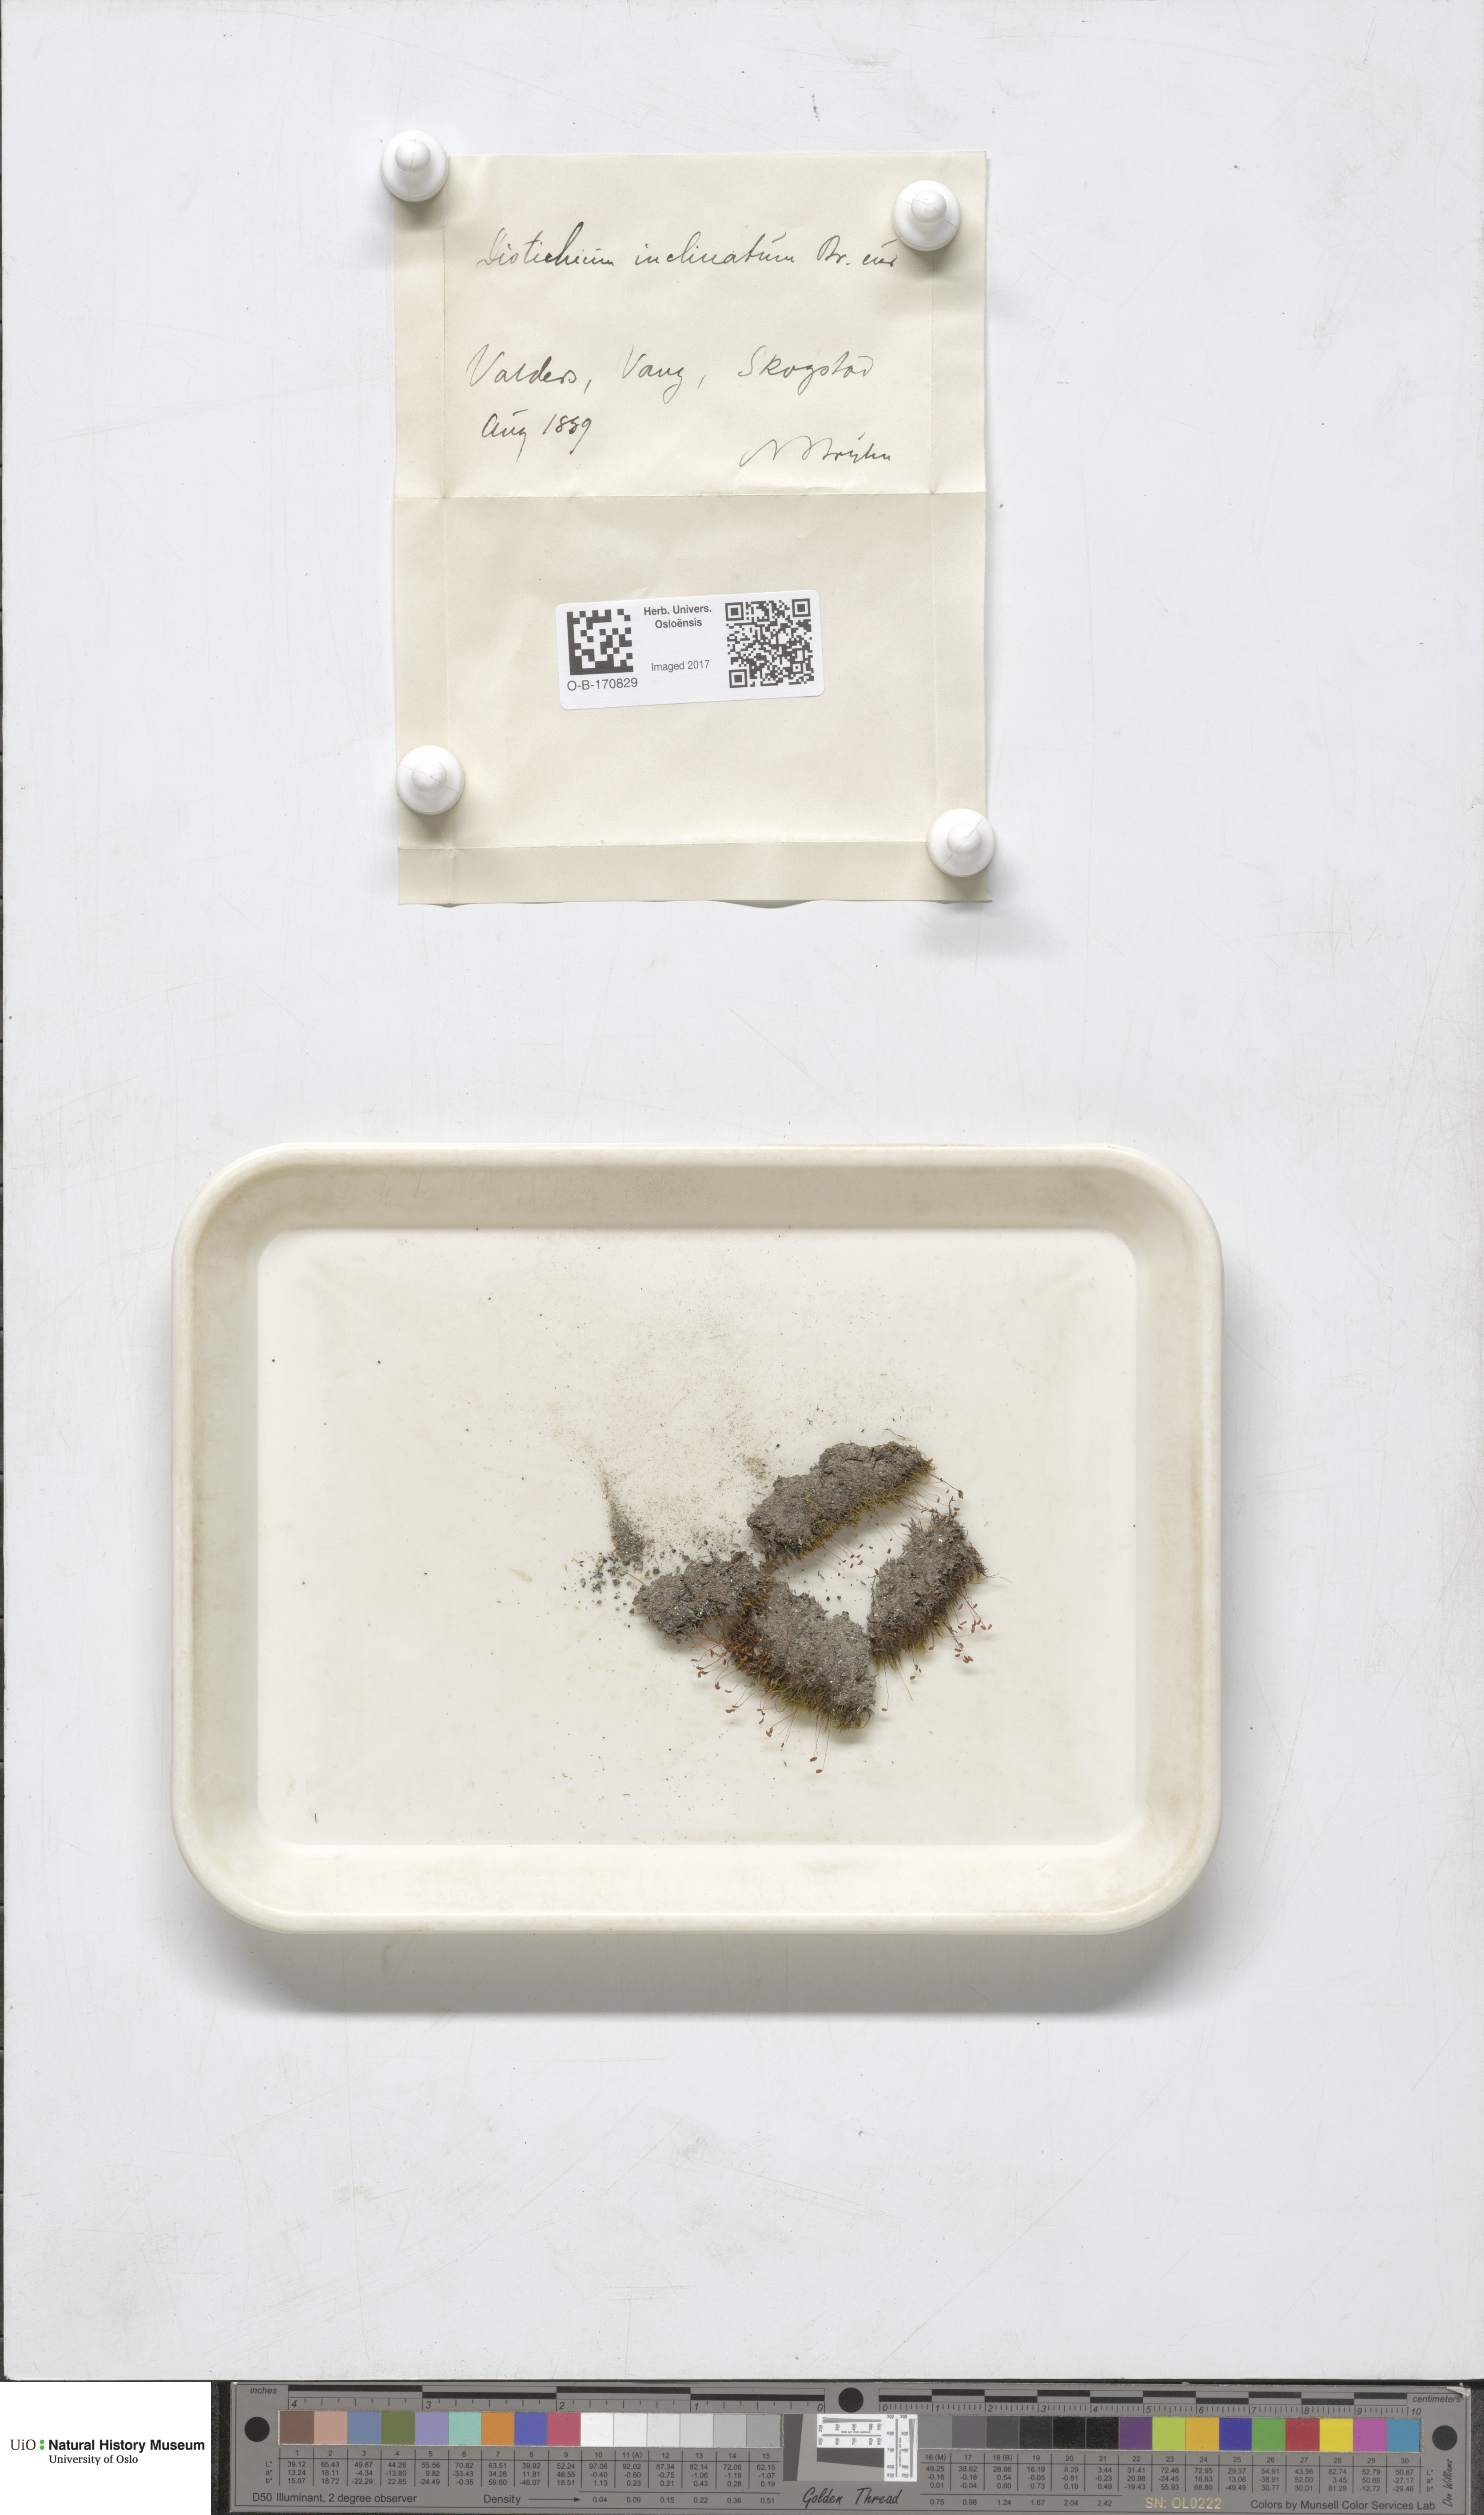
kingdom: Plantae
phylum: Bryophyta
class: Bryopsida
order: Scouleriales
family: Distichiaceae
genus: Distichium
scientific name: Distichium inclinatum
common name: Inclined iris moss
